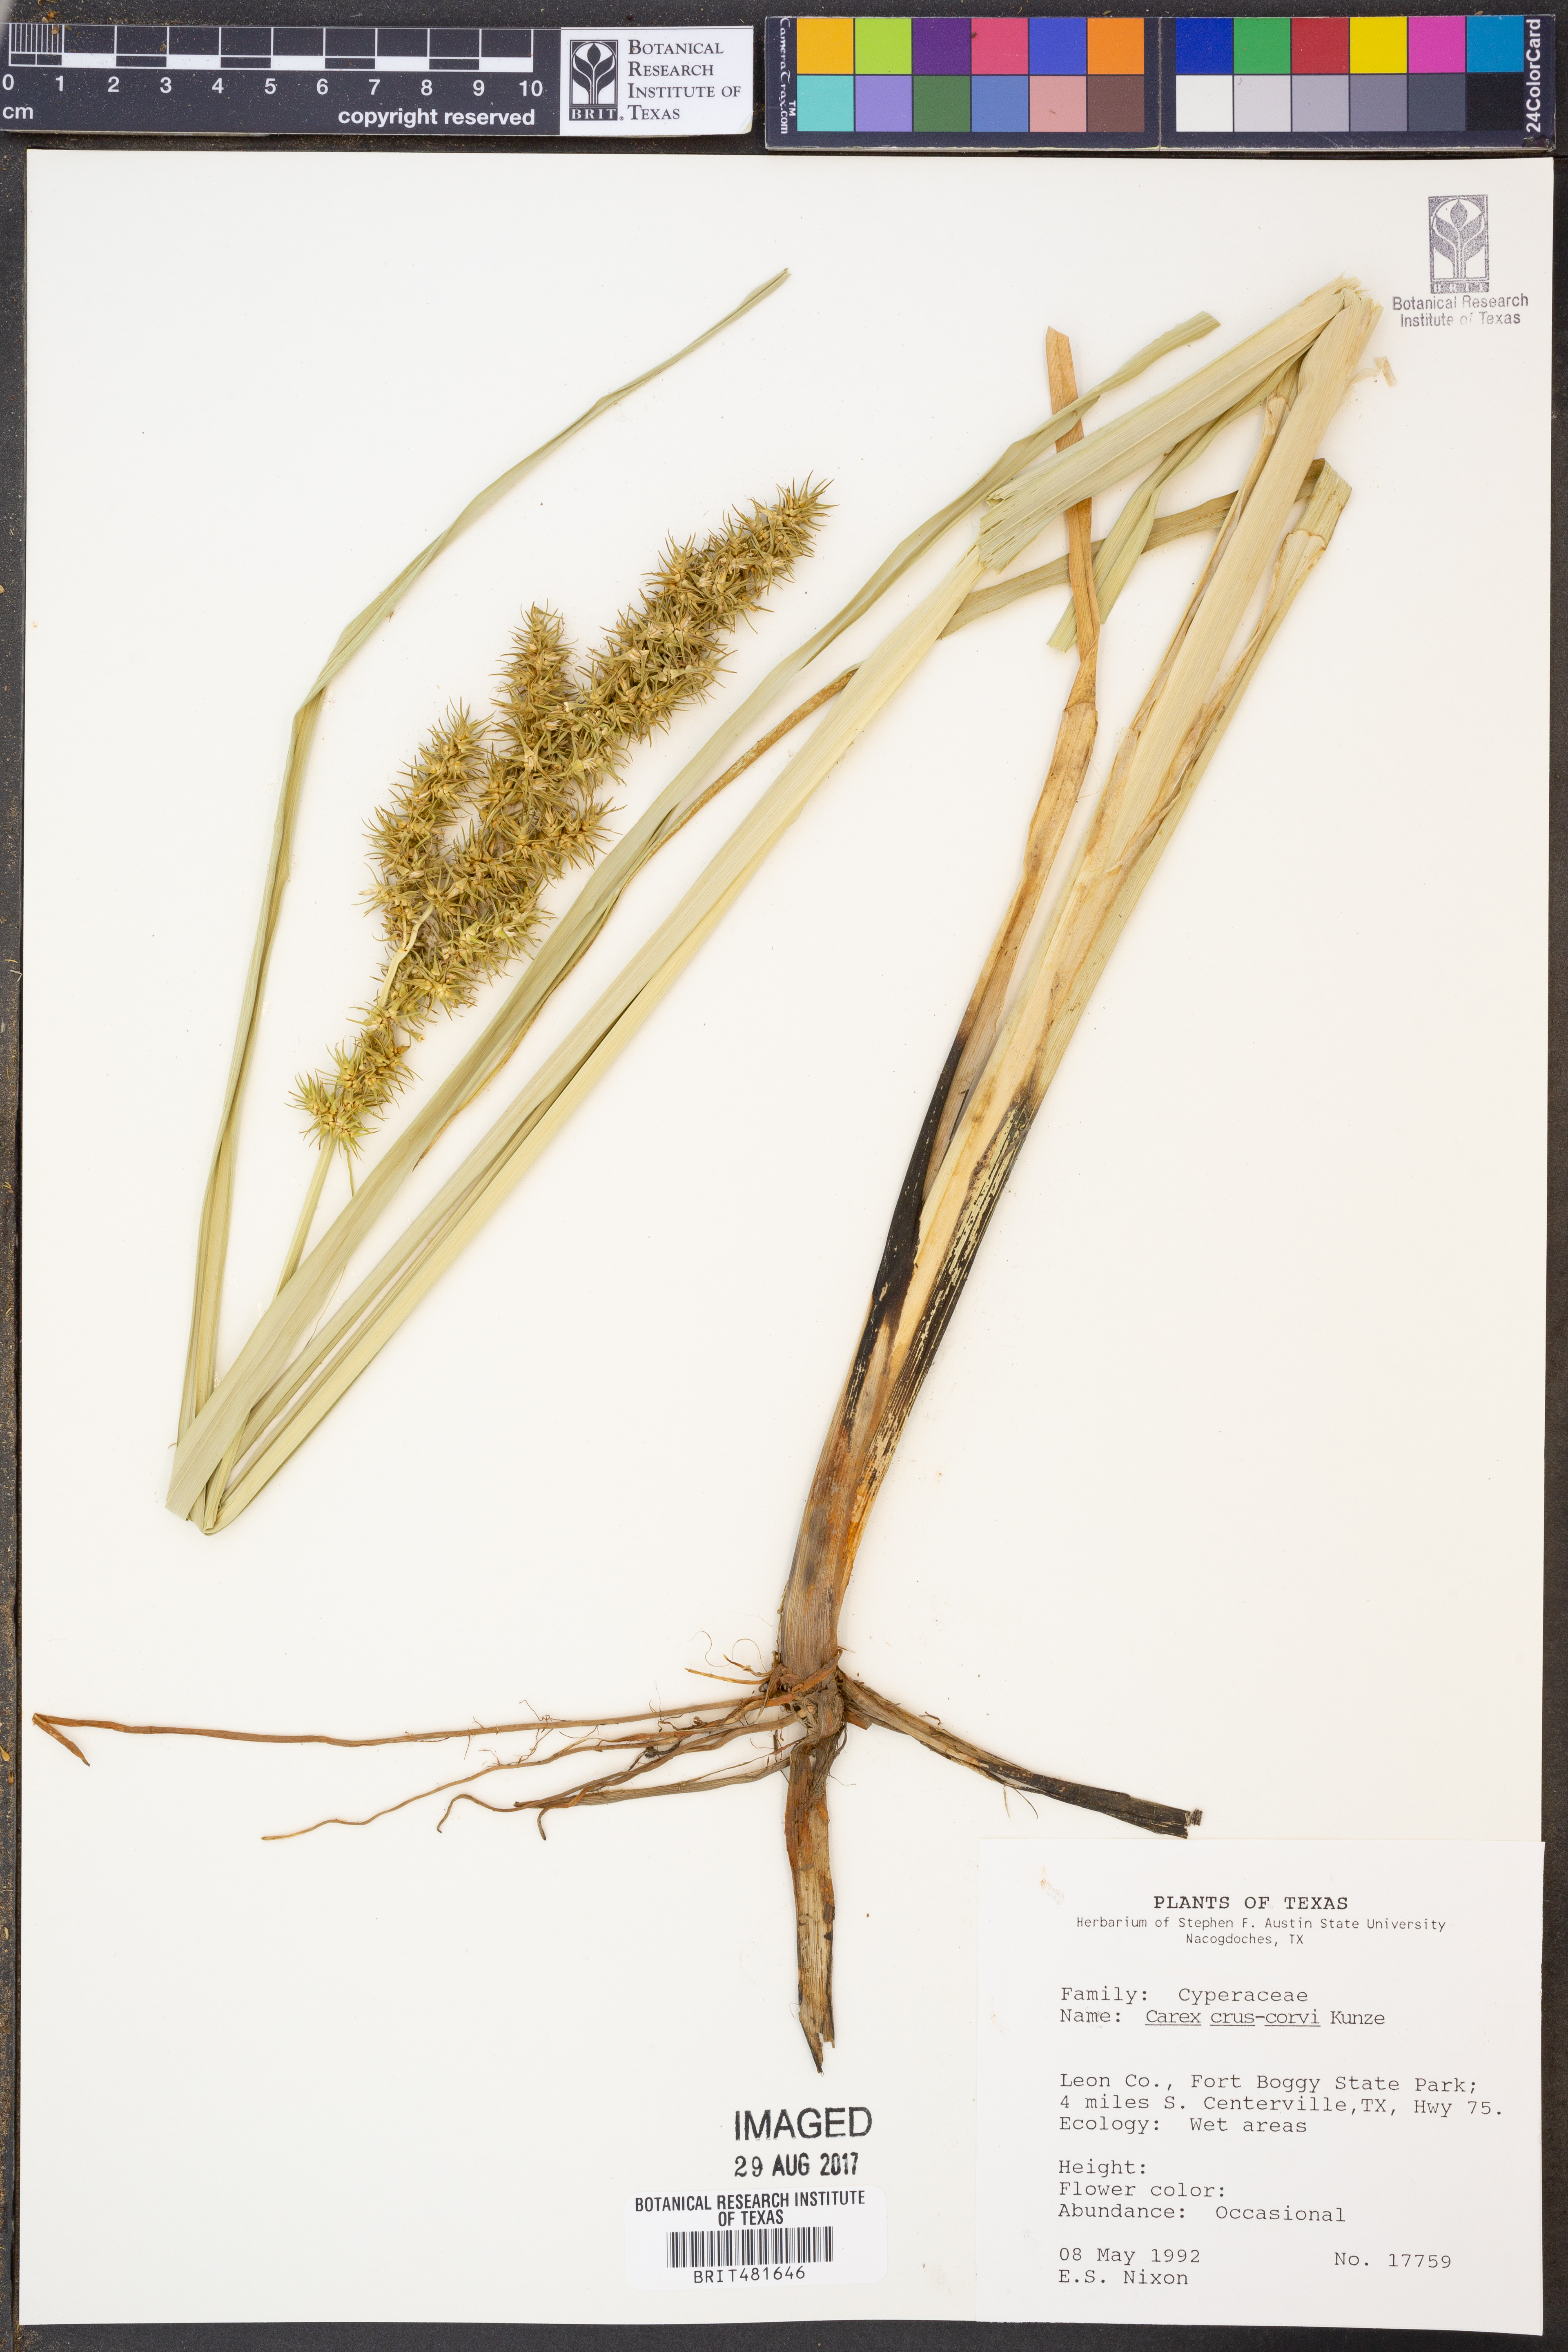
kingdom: Plantae
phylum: Tracheophyta
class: Liliopsida
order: Poales
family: Cyperaceae
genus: Carex
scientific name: Carex crus-corvi
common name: Crow-spur sedge
